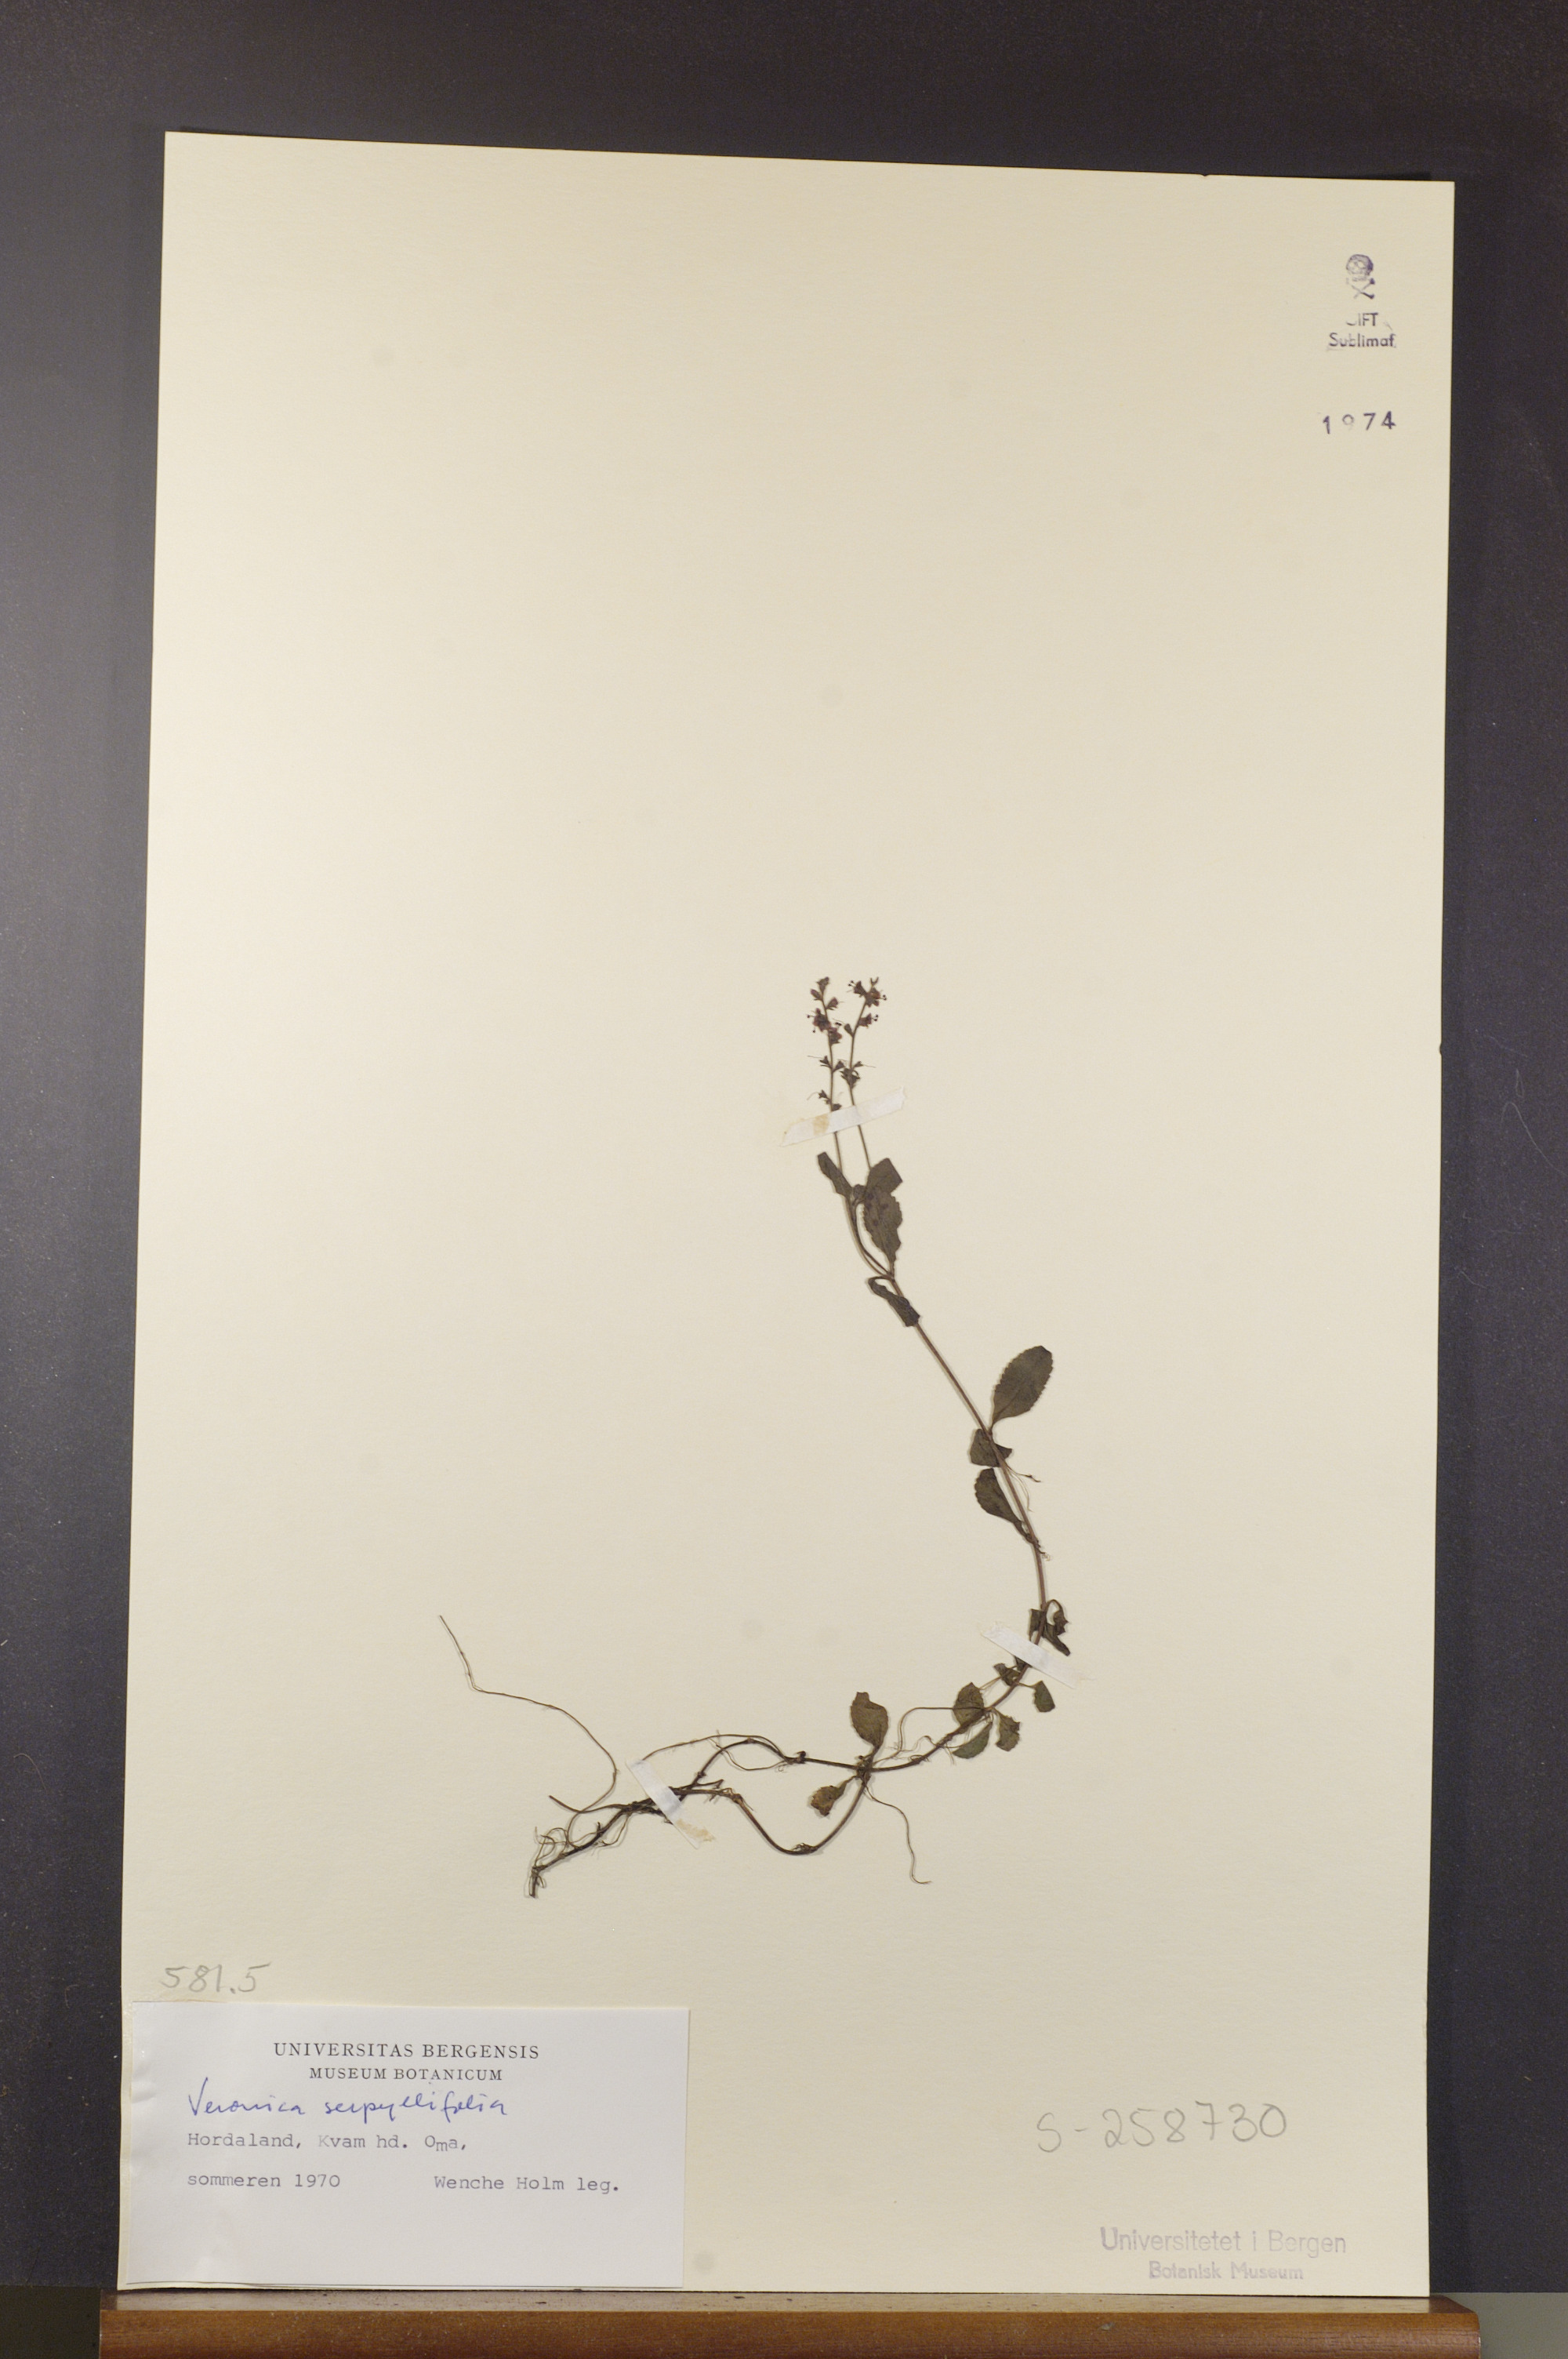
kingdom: Plantae
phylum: Tracheophyta
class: Magnoliopsida
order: Lamiales
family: Plantaginaceae
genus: Veronica
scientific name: Veronica serpyllifolia
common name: Thyme-leaved speedwell
